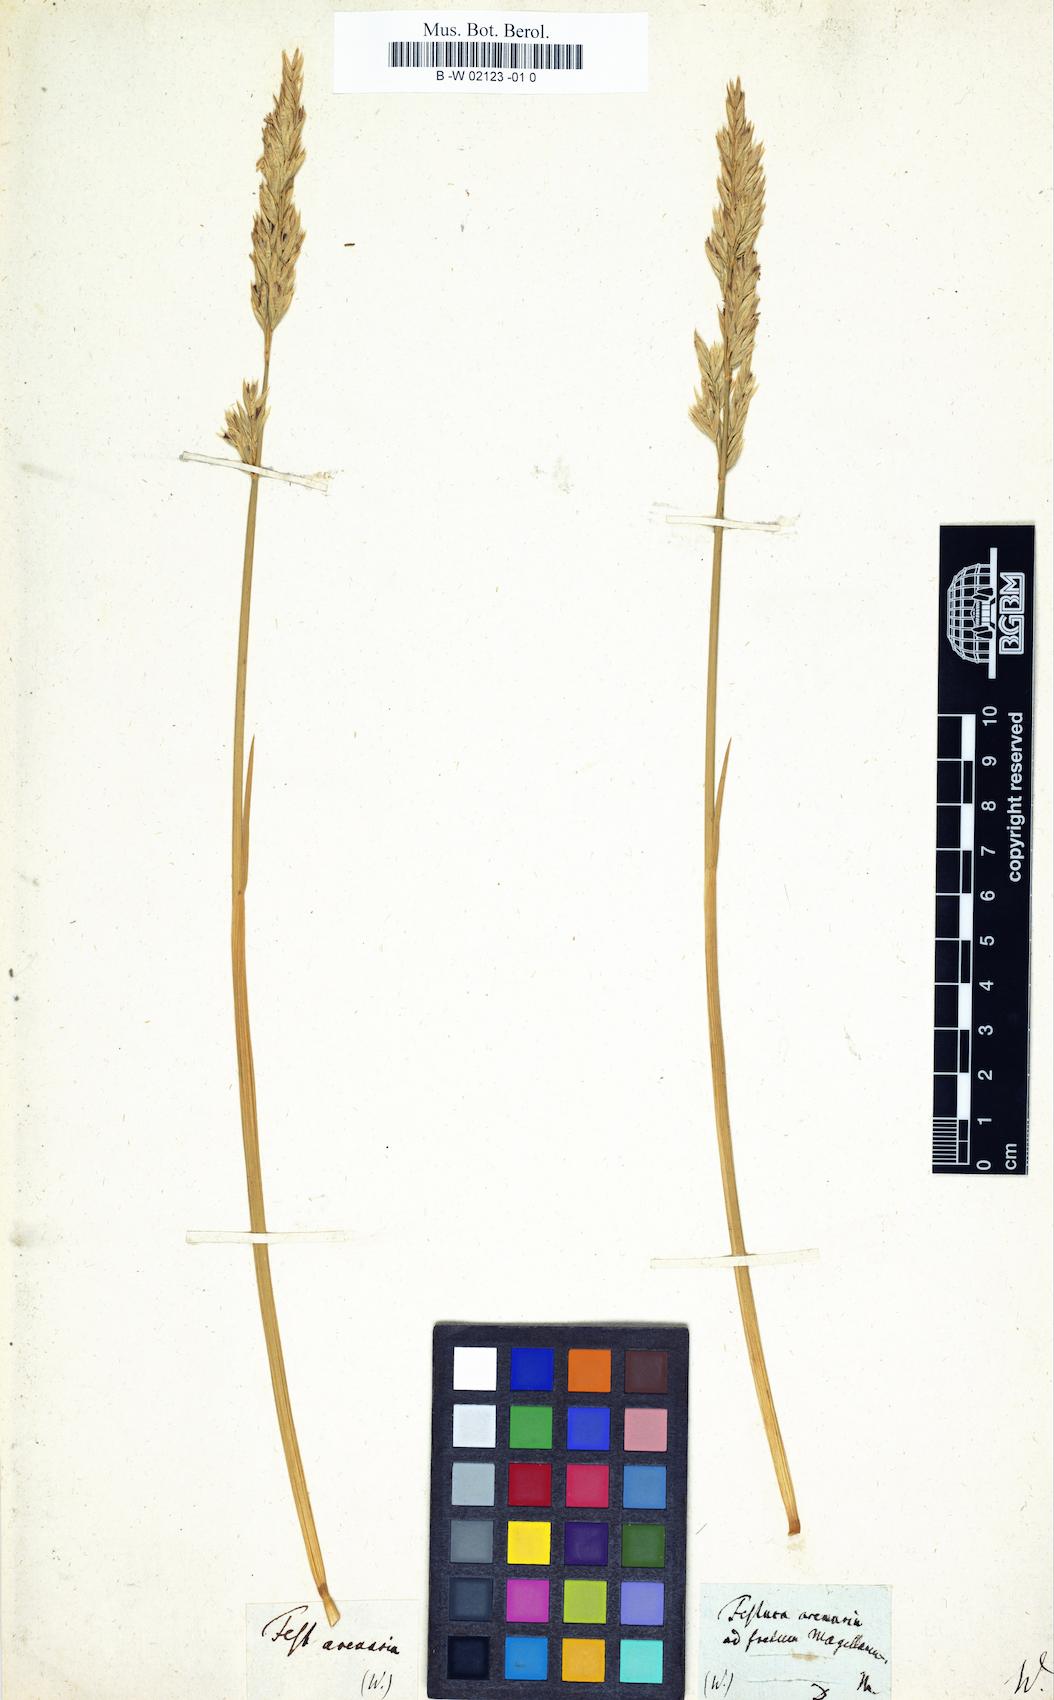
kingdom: Plantae
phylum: Tracheophyta
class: Liliopsida
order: Poales
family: Poaceae
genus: Festuca
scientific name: Festuca rubra
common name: Red fescue
